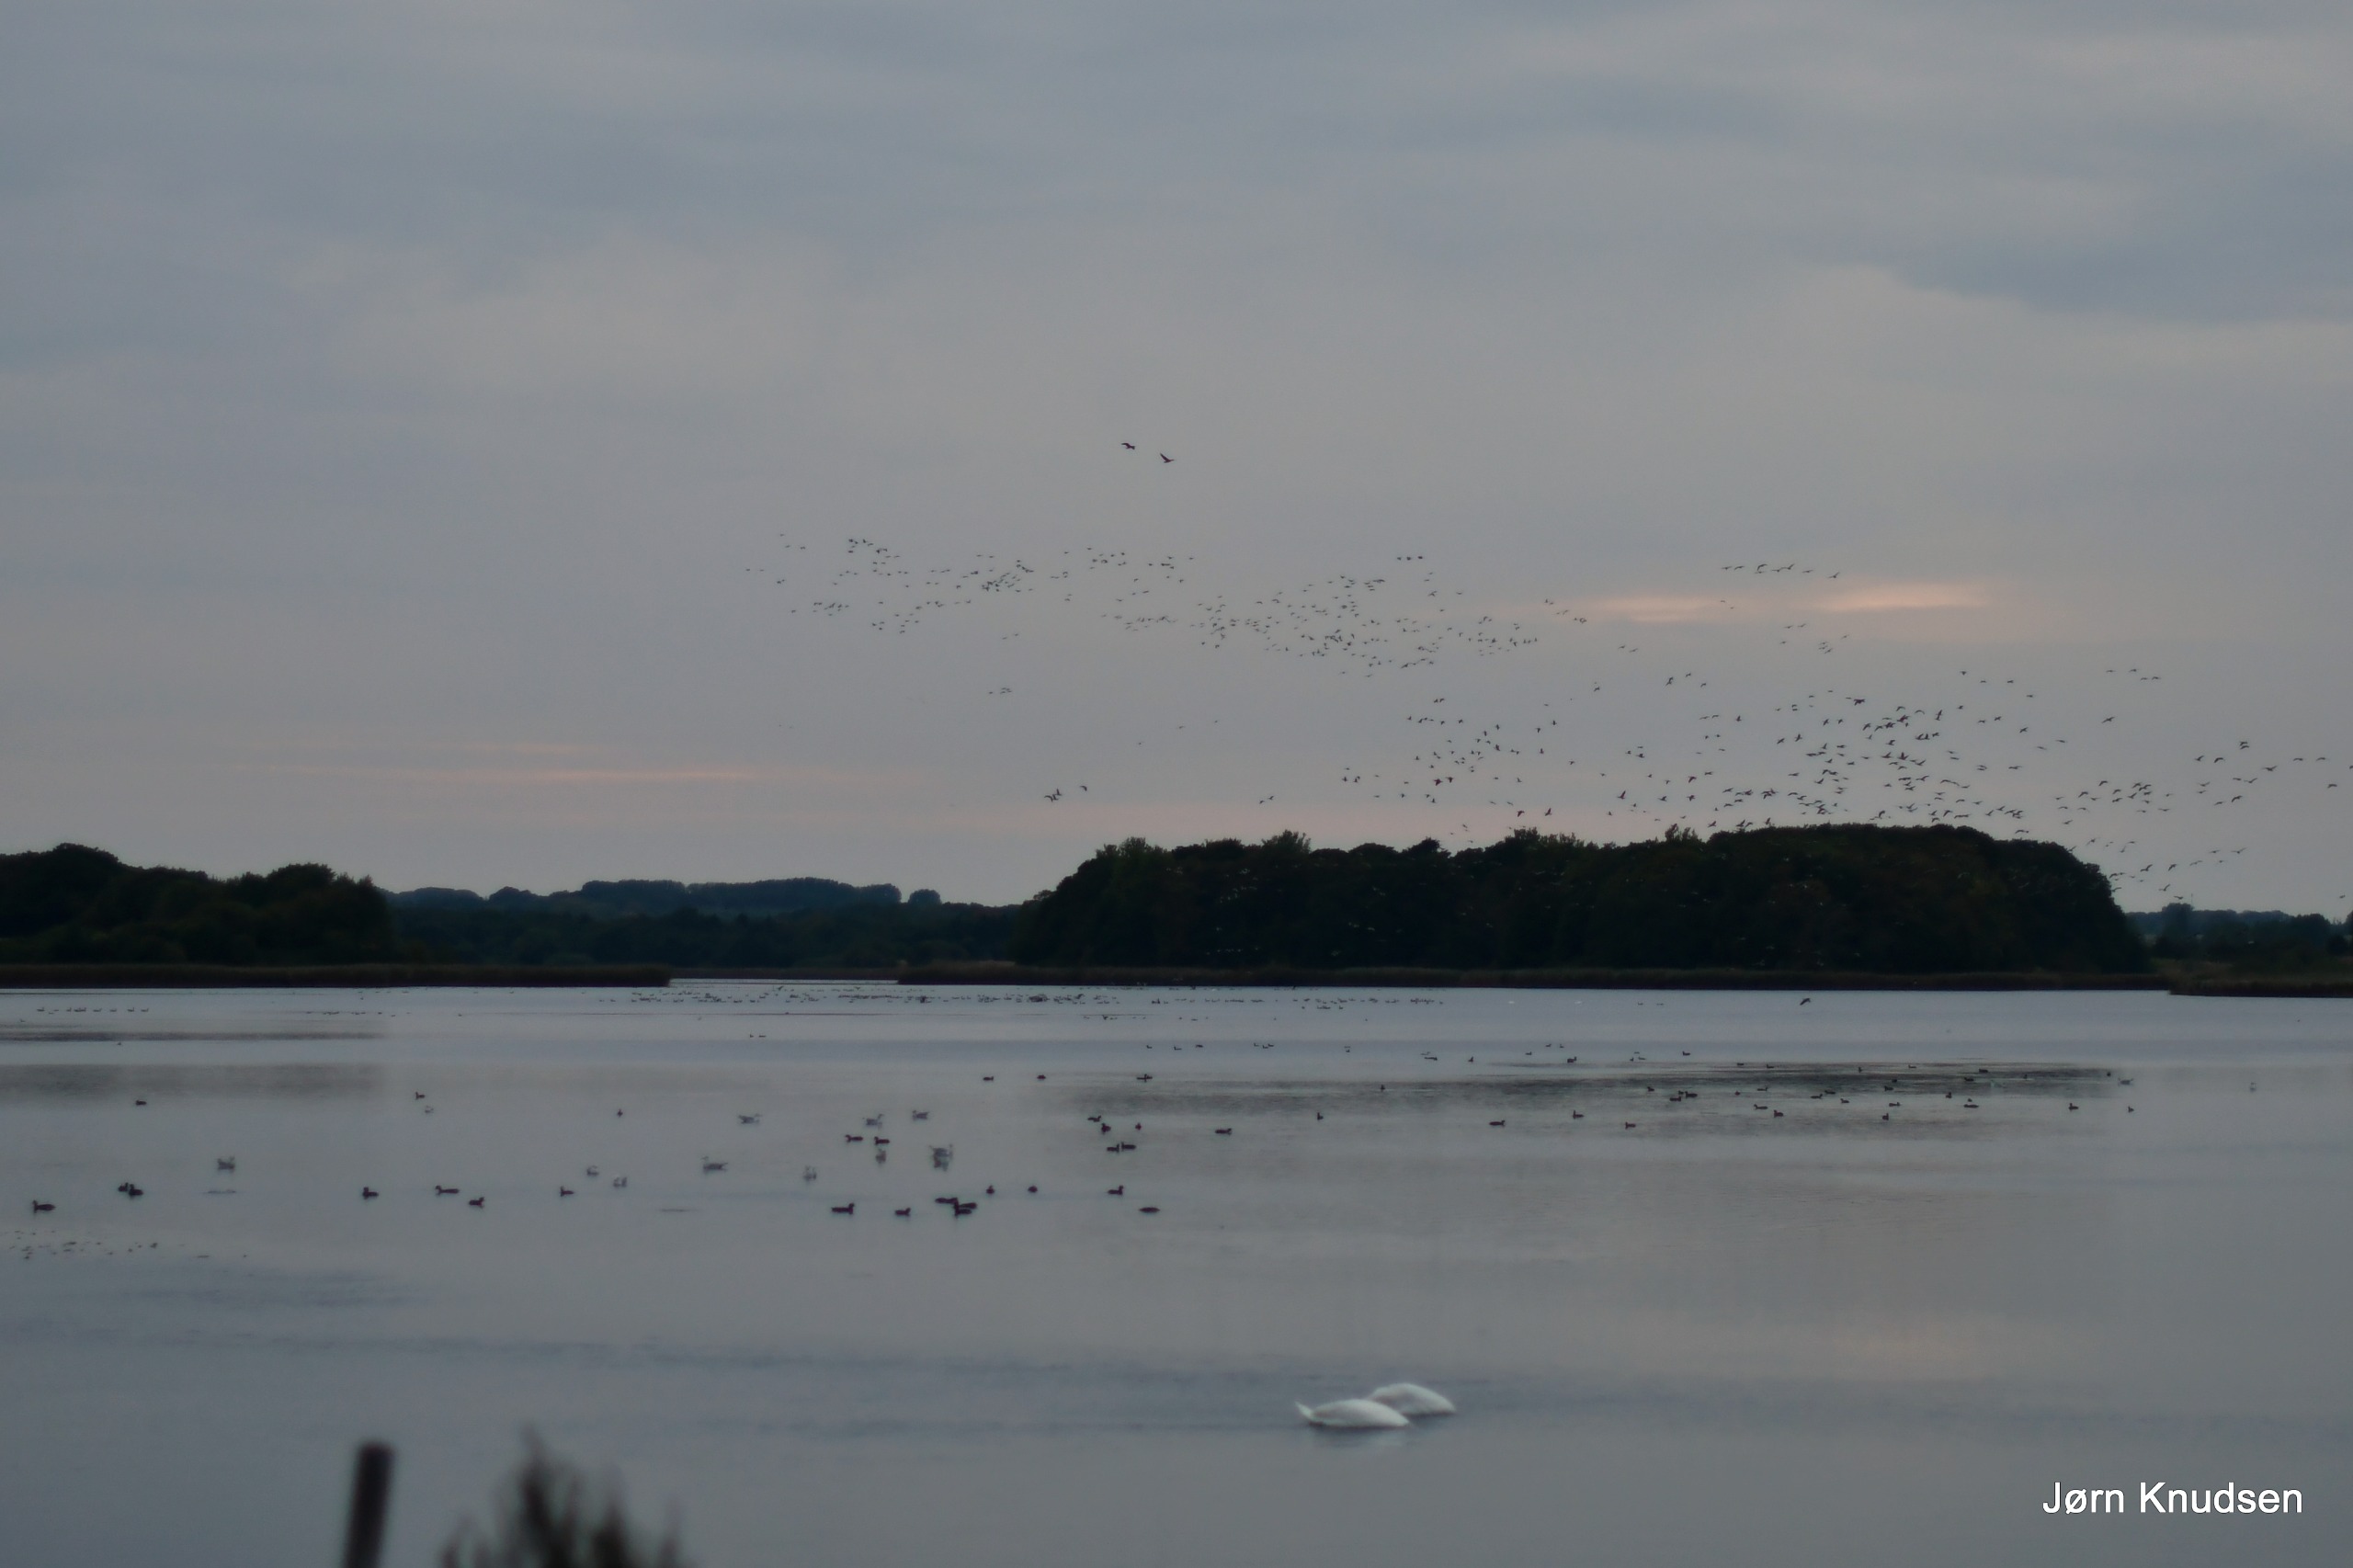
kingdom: Animalia
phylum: Chordata
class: Aves
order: Anseriformes
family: Anatidae
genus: Anser
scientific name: Anser anser
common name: Grågås
